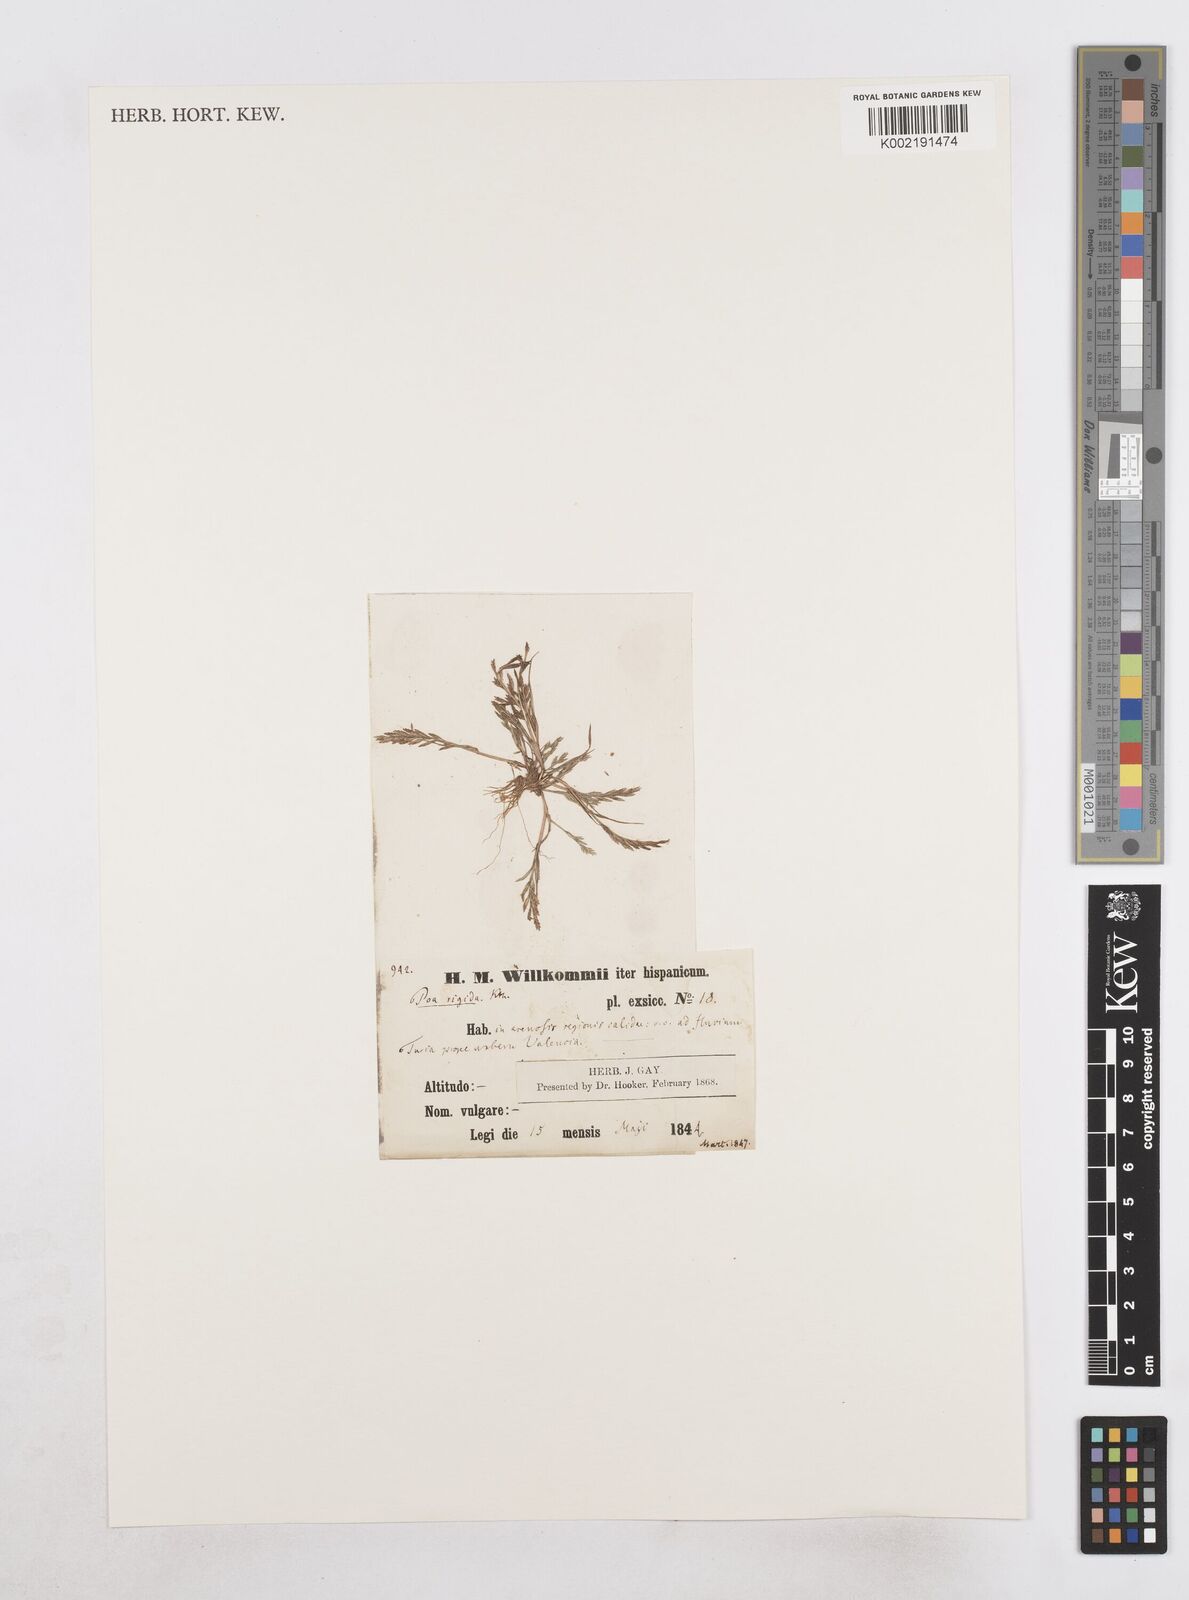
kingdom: Plantae
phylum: Tracheophyta
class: Liliopsida
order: Poales
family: Poaceae
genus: Catapodium
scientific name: Catapodium rigidum
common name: Fern-grass
